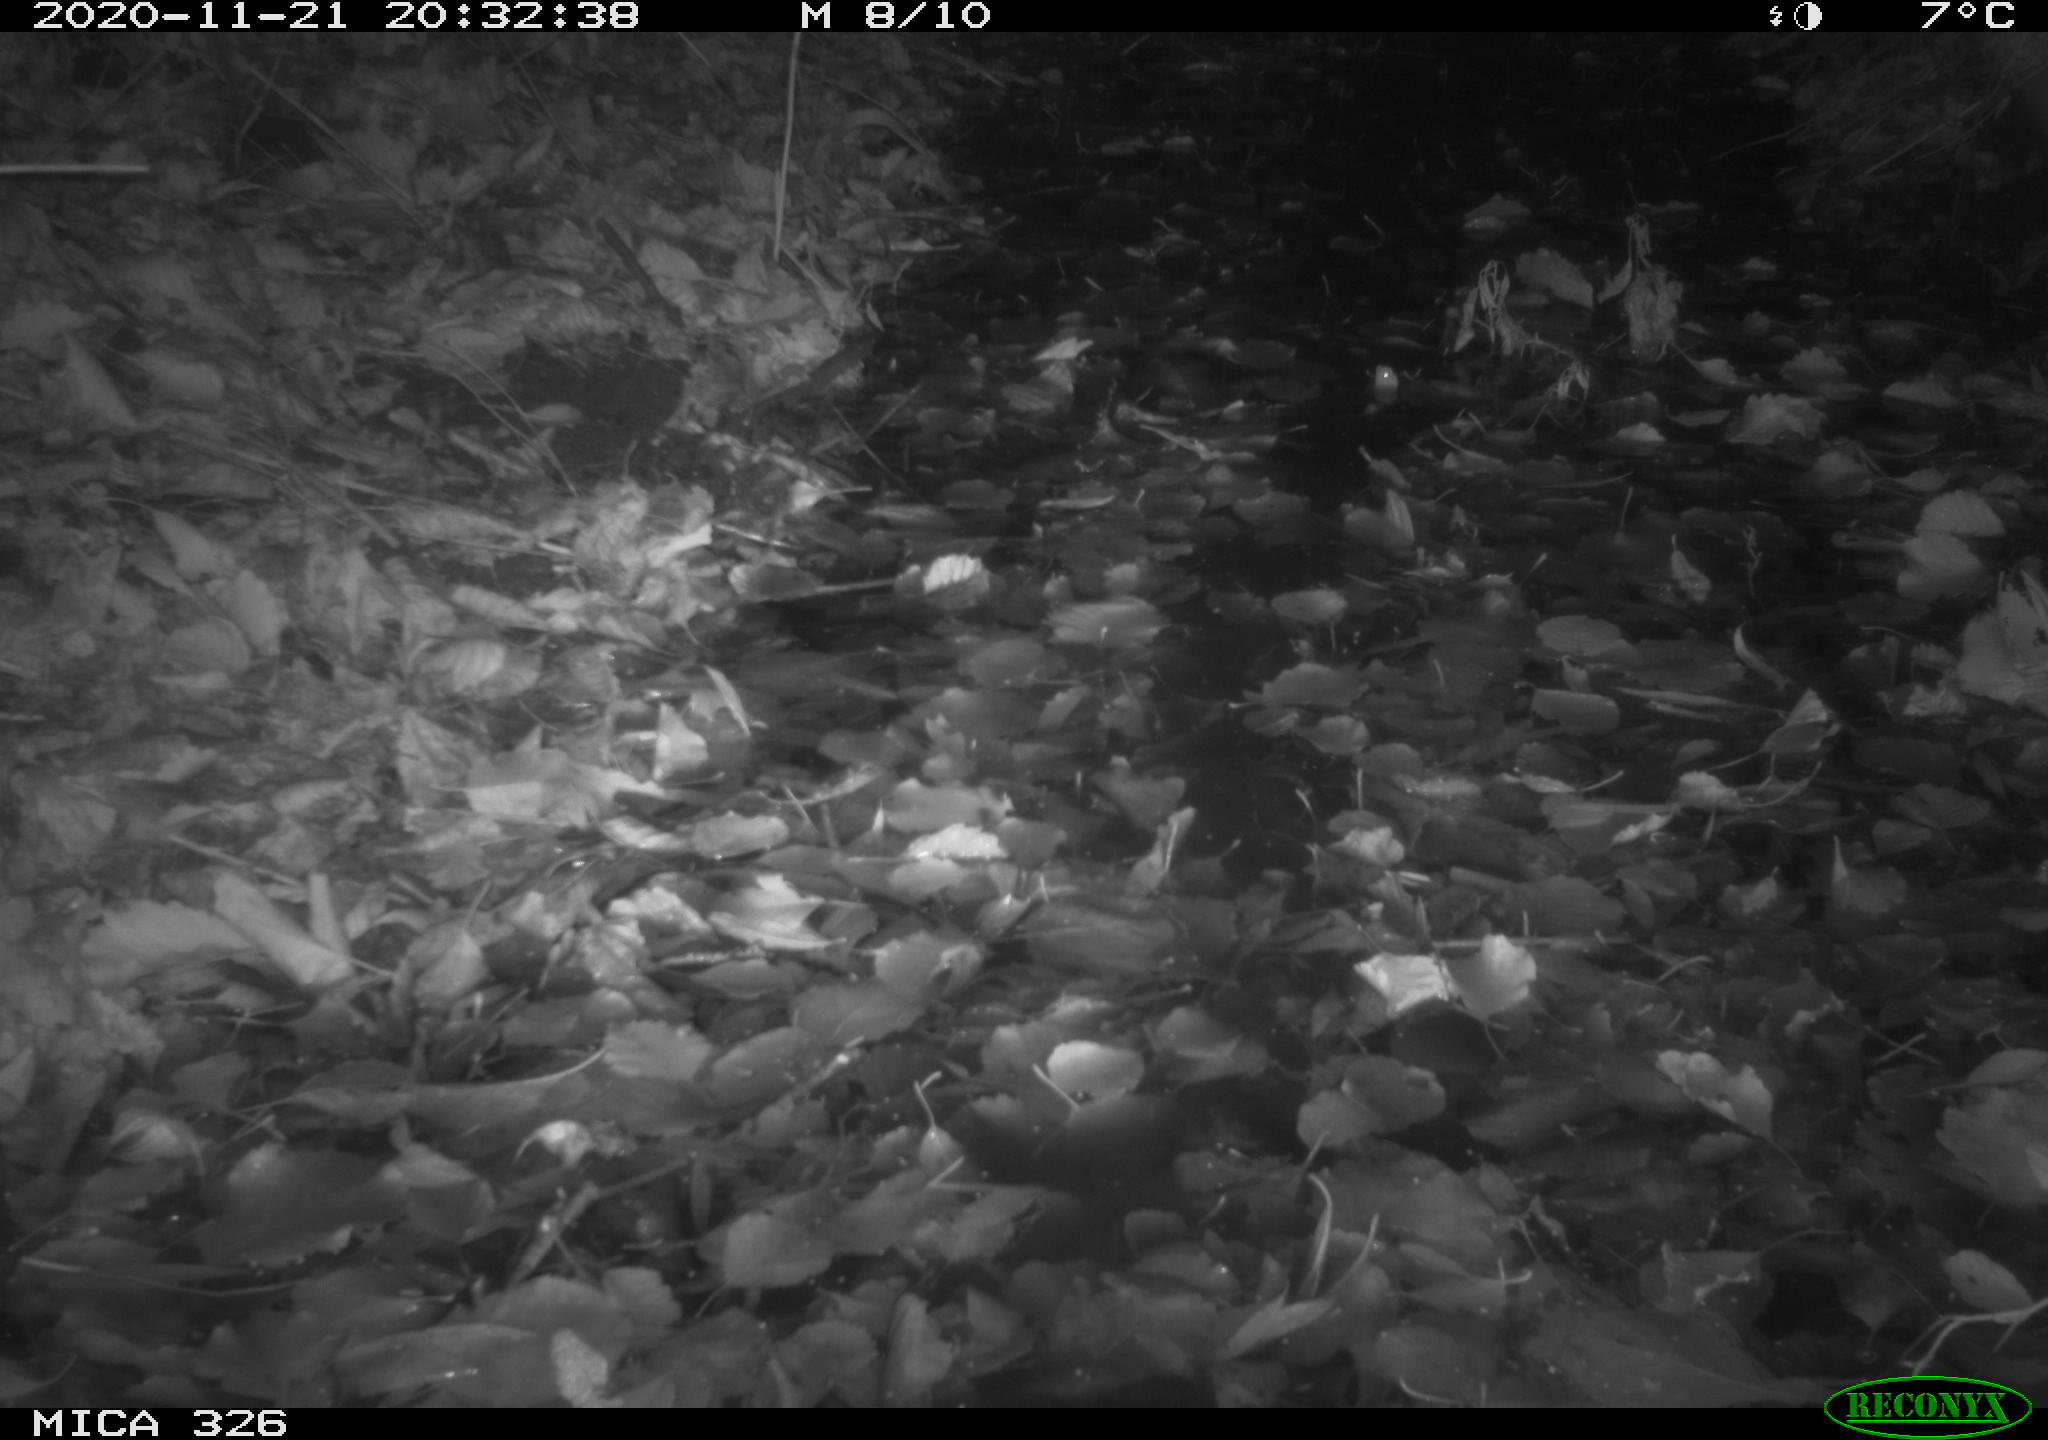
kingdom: Animalia
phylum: Chordata
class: Mammalia
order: Carnivora
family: Mustelidae
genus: Lutra
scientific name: Lutra lutra
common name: European otter
